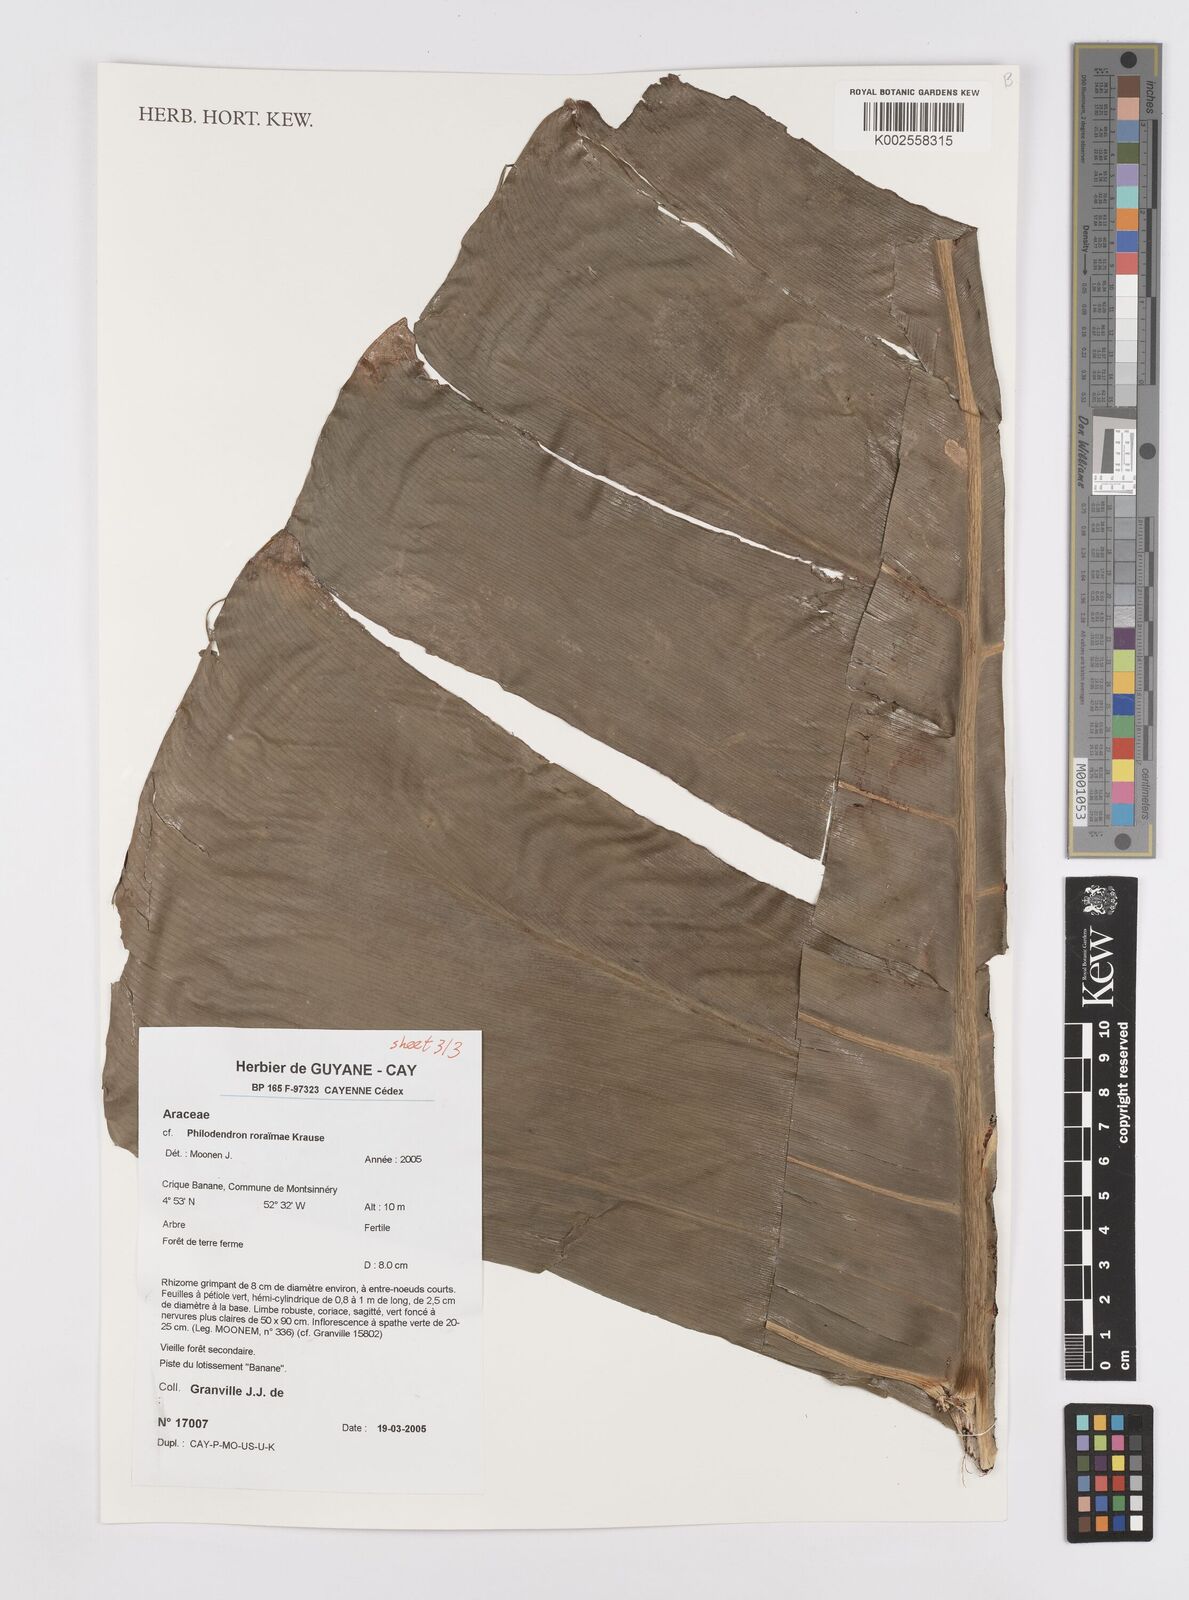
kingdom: Plantae
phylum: Tracheophyta
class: Liliopsida
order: Alismatales
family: Araceae
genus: Philodendron
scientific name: Philodendron roraimae
